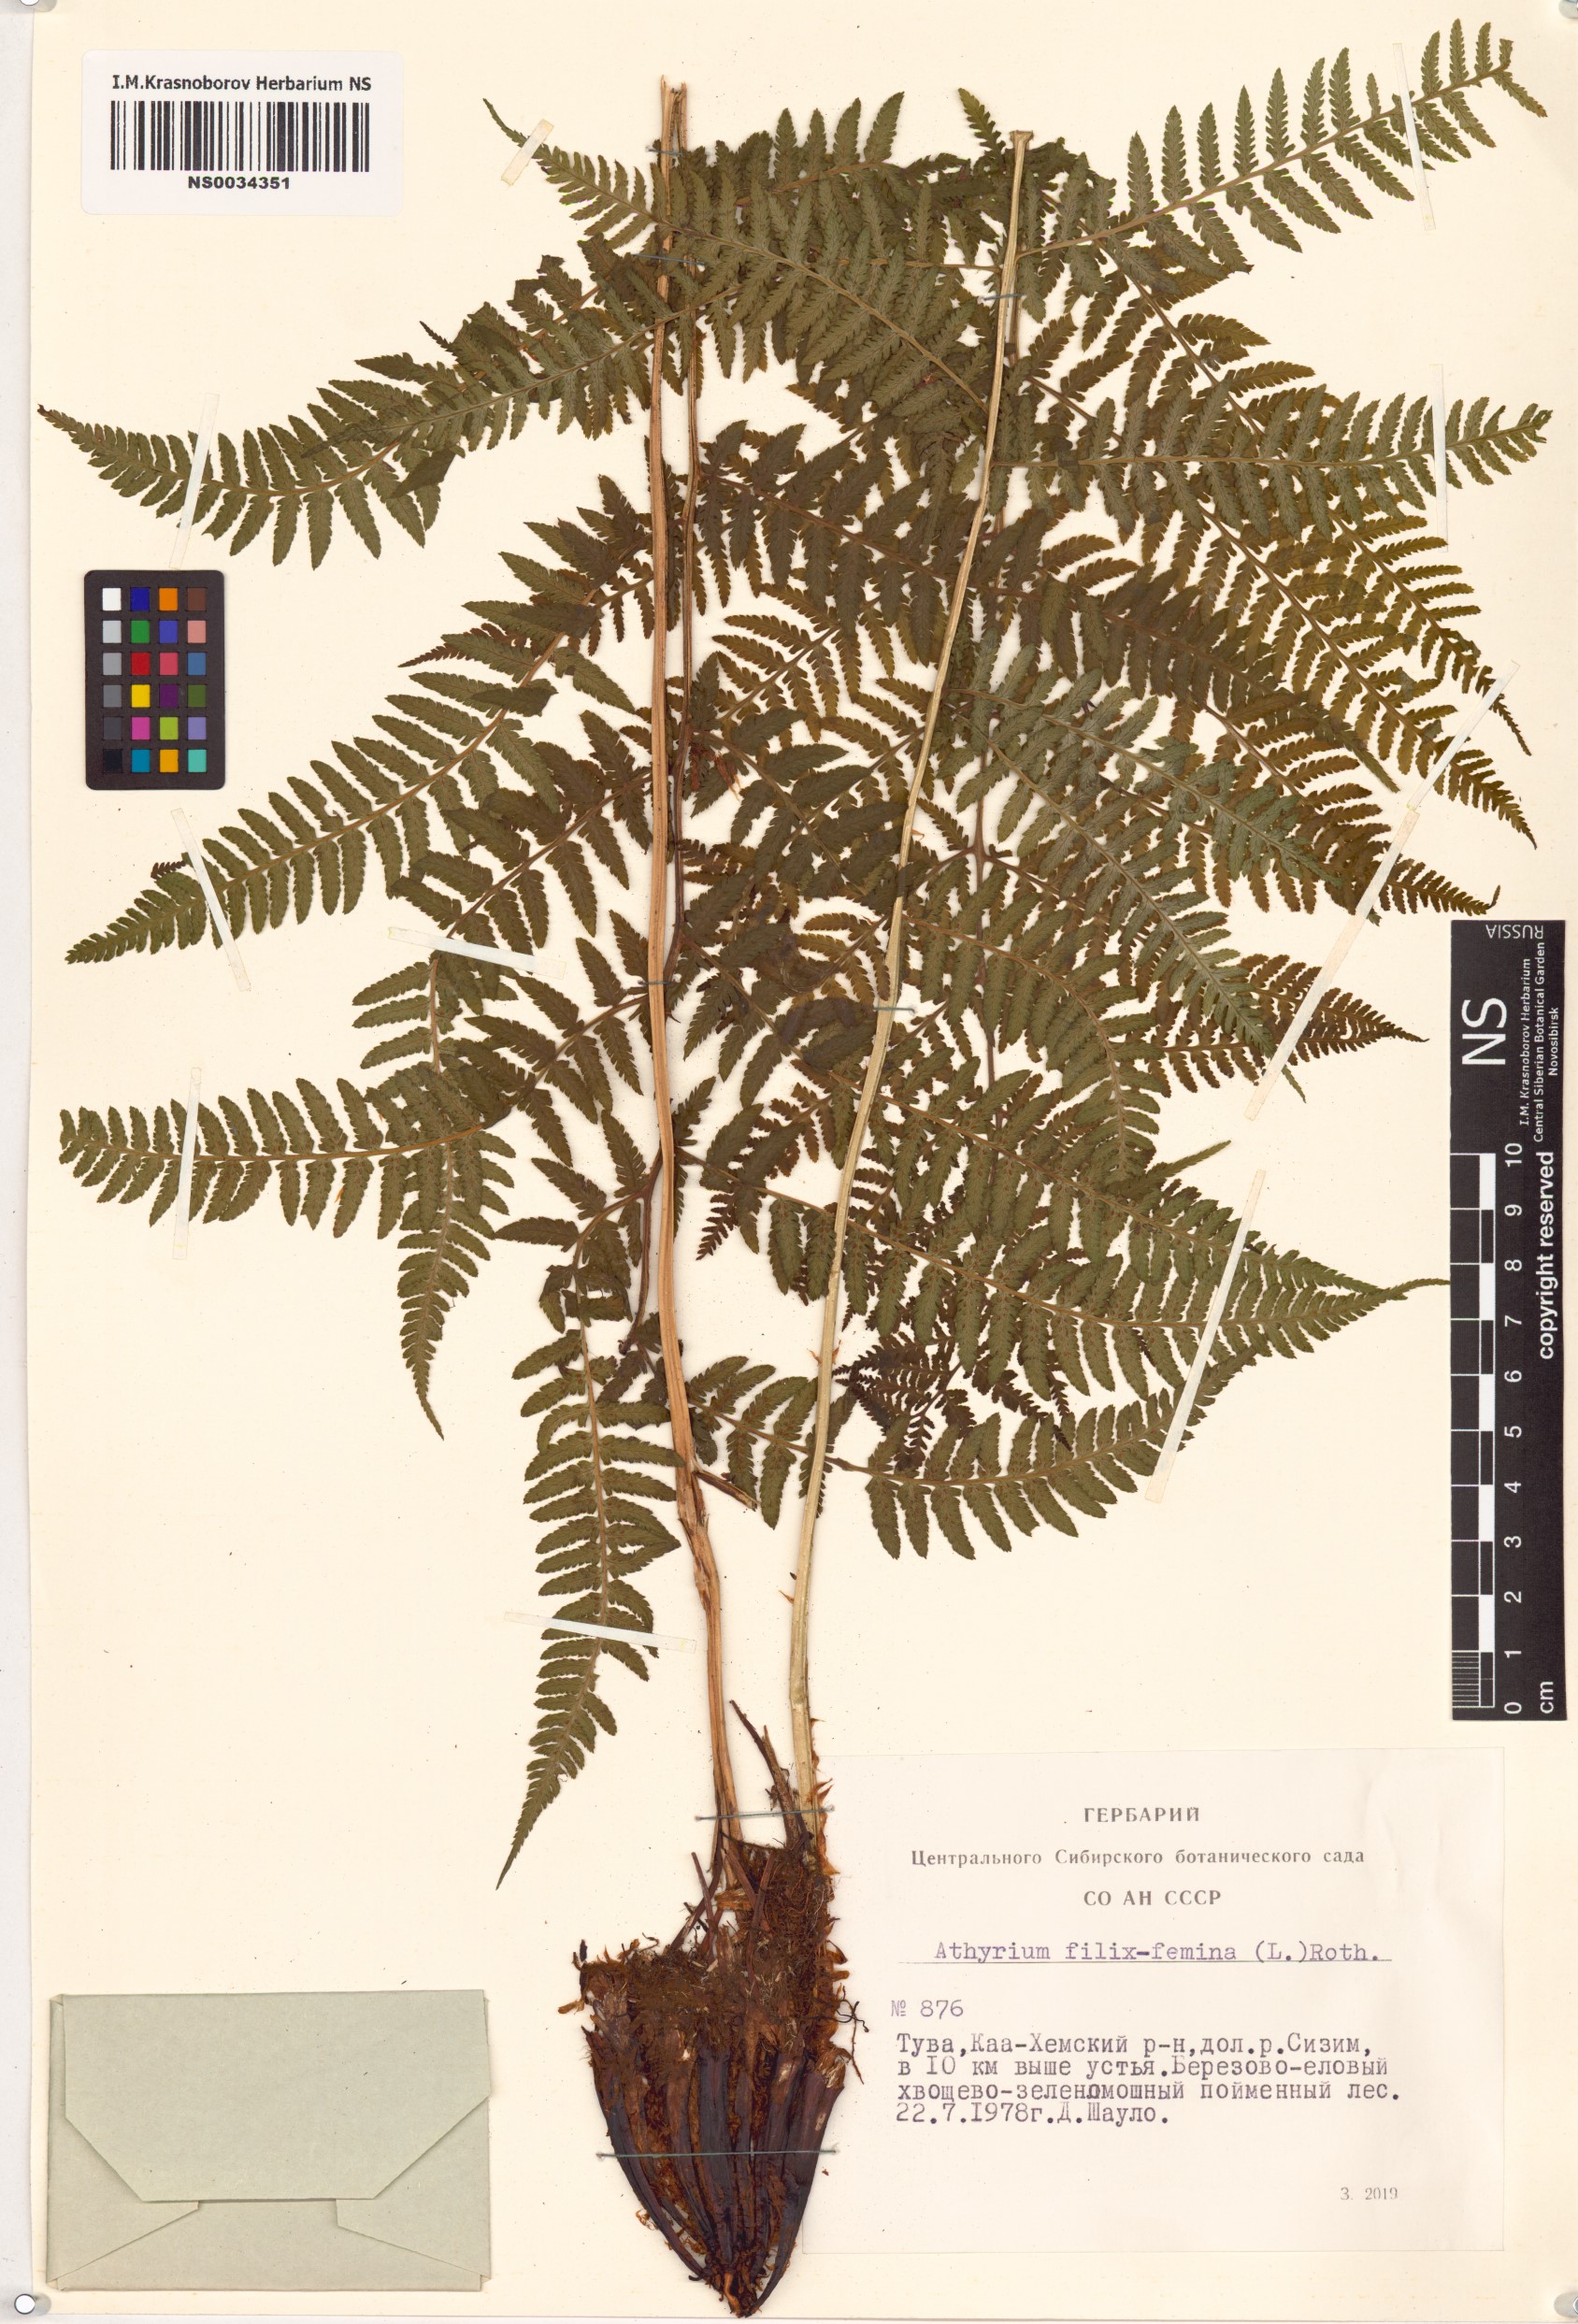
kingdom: Plantae
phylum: Tracheophyta
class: Polypodiopsida
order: Polypodiales
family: Athyriaceae
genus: Athyrium
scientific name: Athyrium filix-femina
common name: Lady fern
